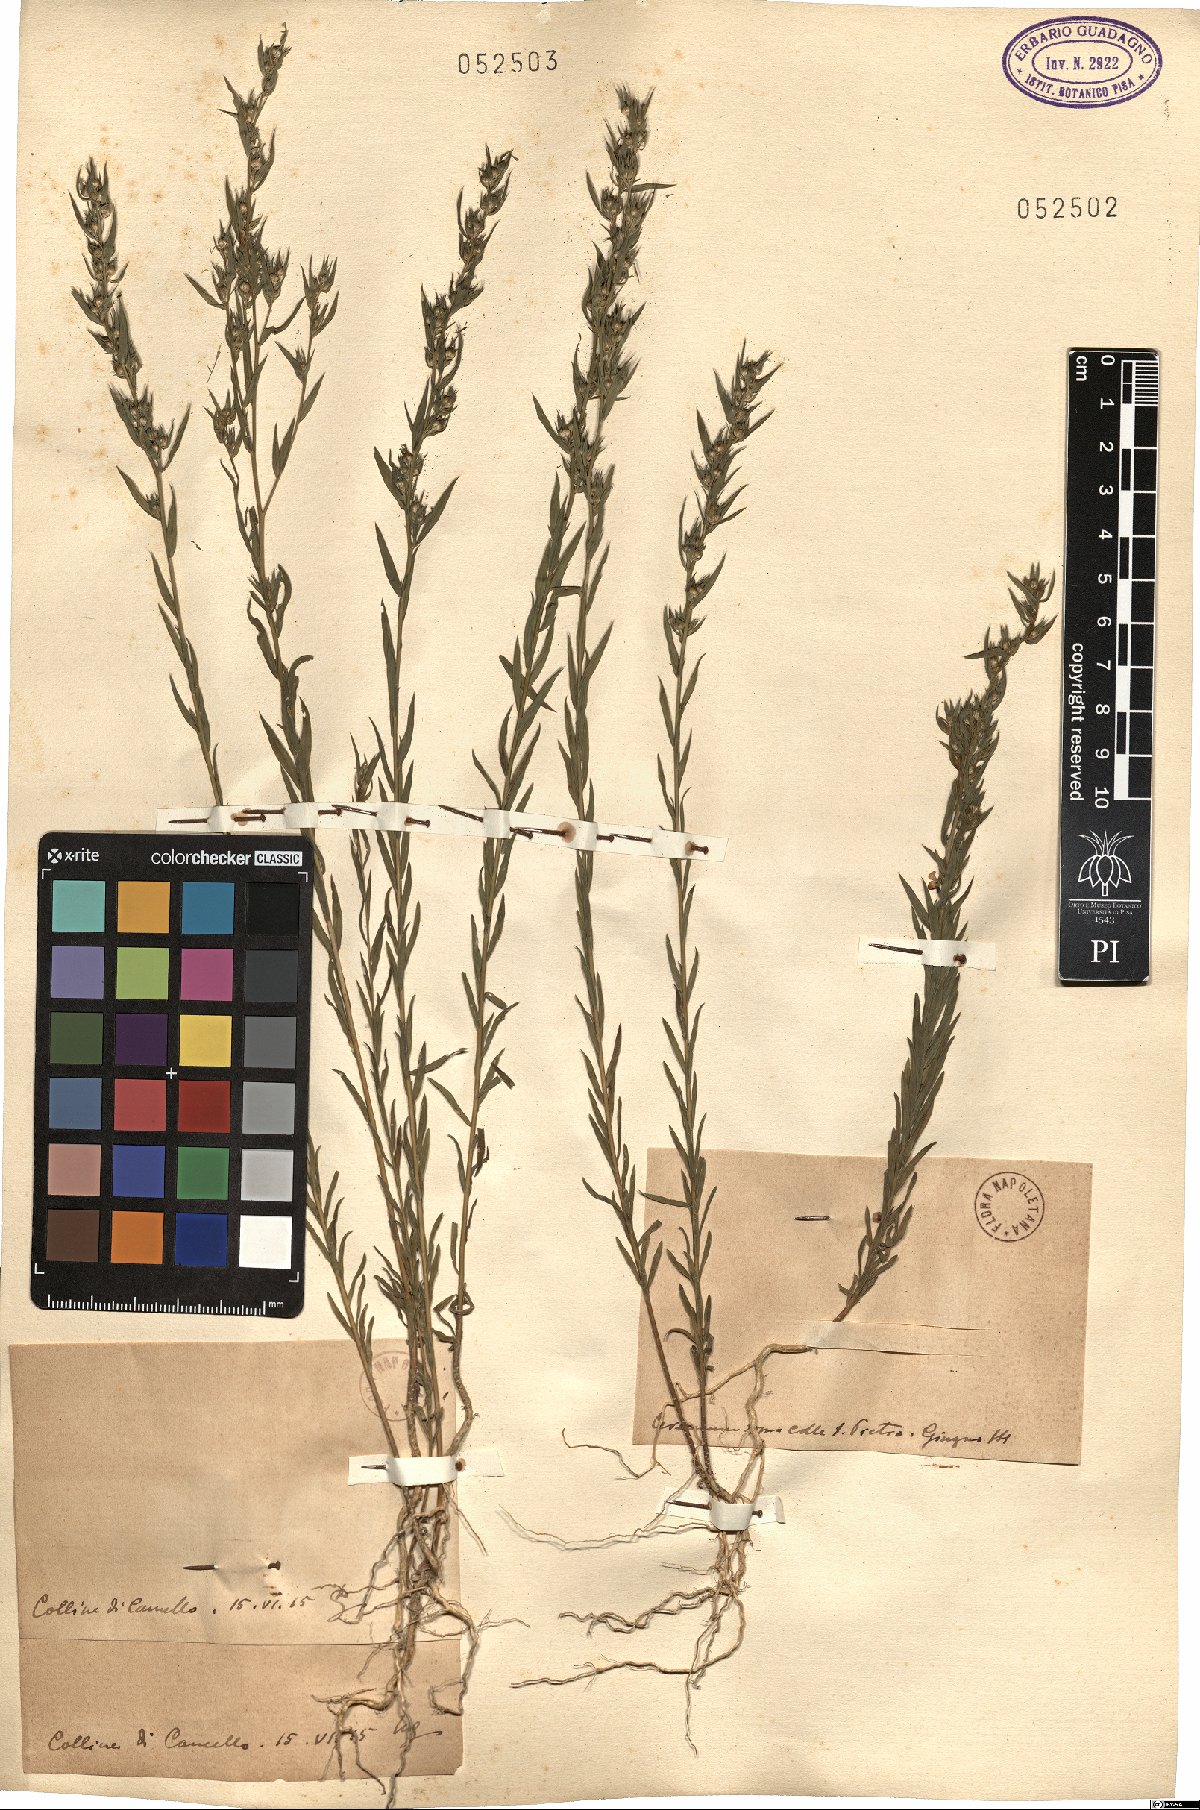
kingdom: Plantae
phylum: Tracheophyta
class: Magnoliopsida
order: Malpighiales
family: Linaceae
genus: Linum
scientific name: Linum
